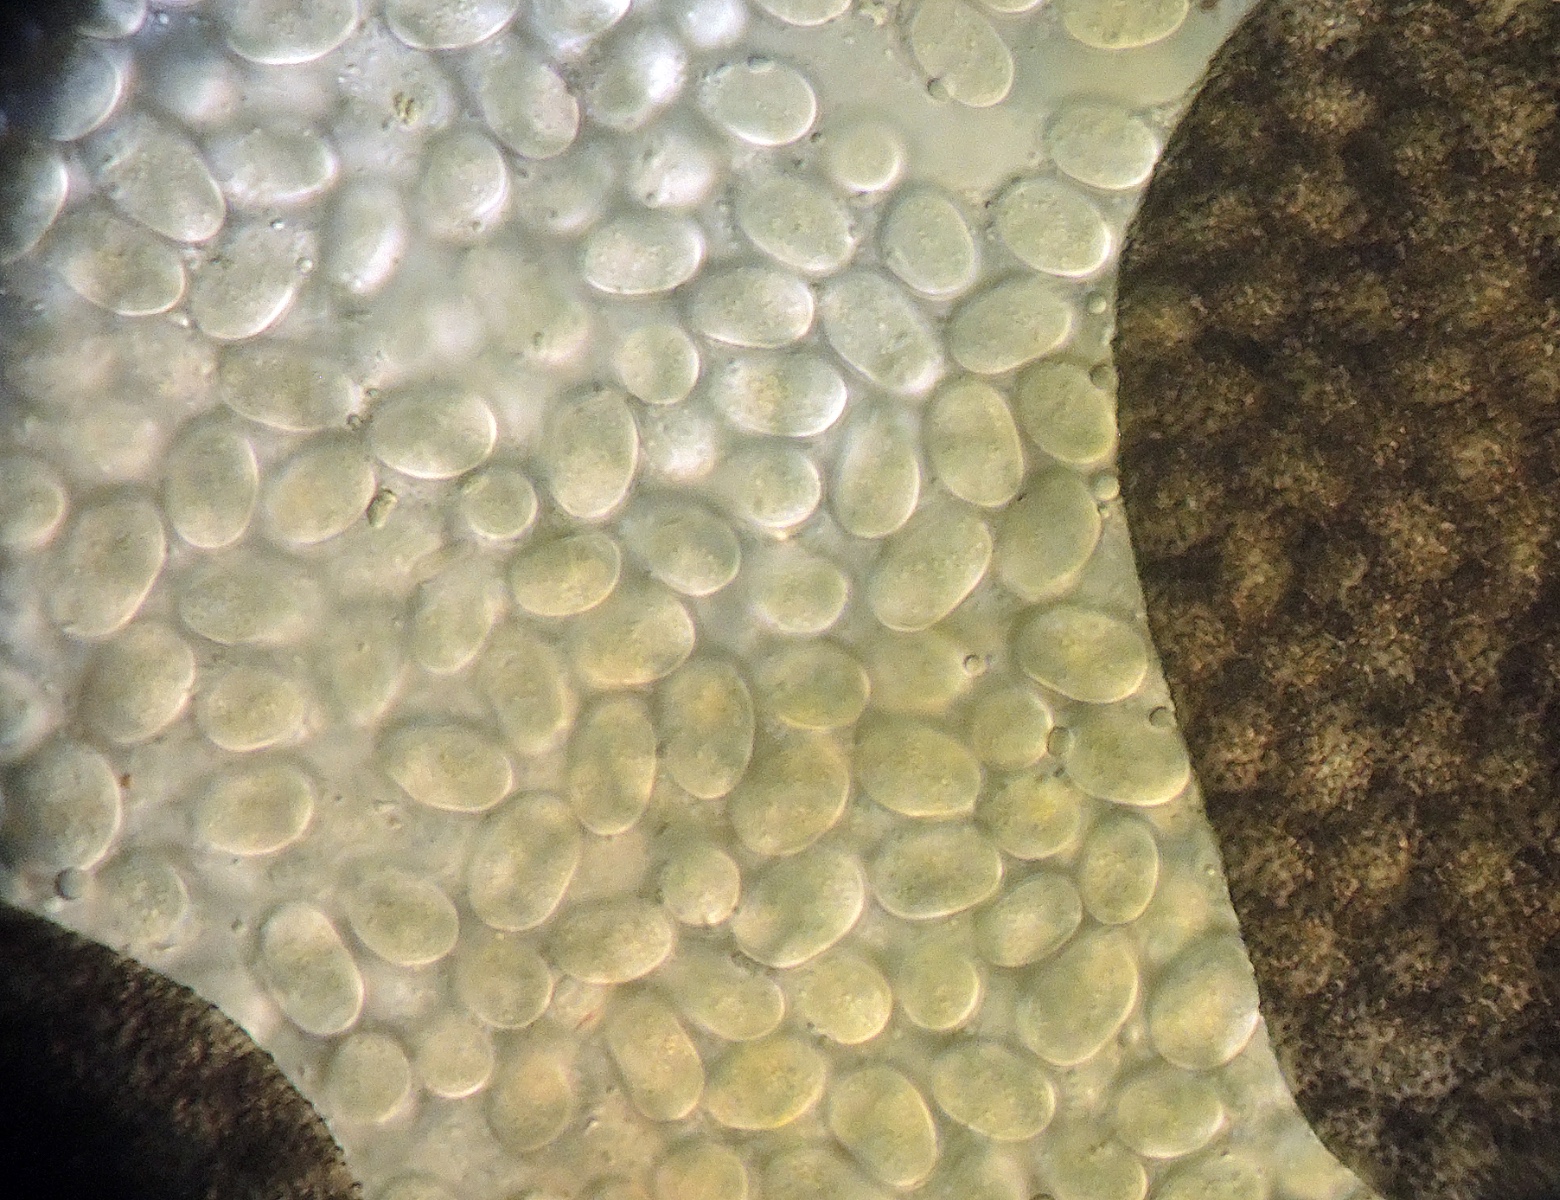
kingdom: Fungi
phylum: Mucoromycota
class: Mucoromycetes
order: Mucorales
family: Mucoraceae
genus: Pilaira
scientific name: Pilaira moreaui
